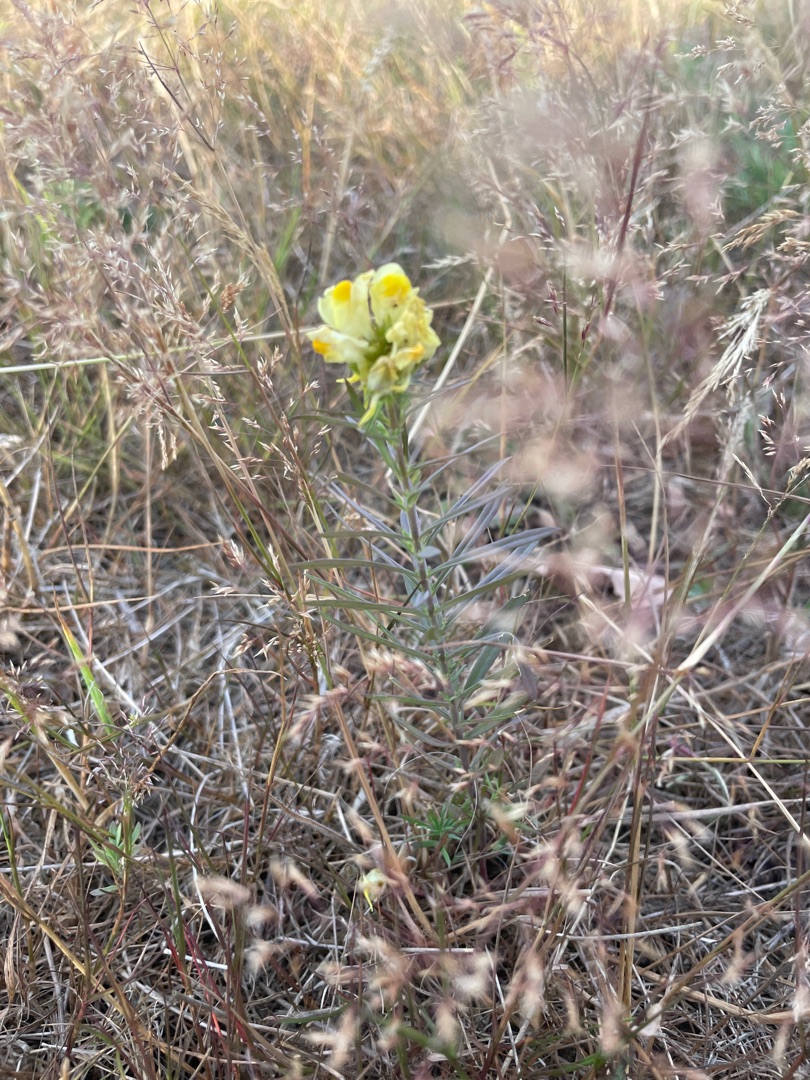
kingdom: Plantae
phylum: Tracheophyta
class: Magnoliopsida
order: Lamiales
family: Plantaginaceae
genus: Linaria
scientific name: Linaria vulgaris
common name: Almindelig torskemund
